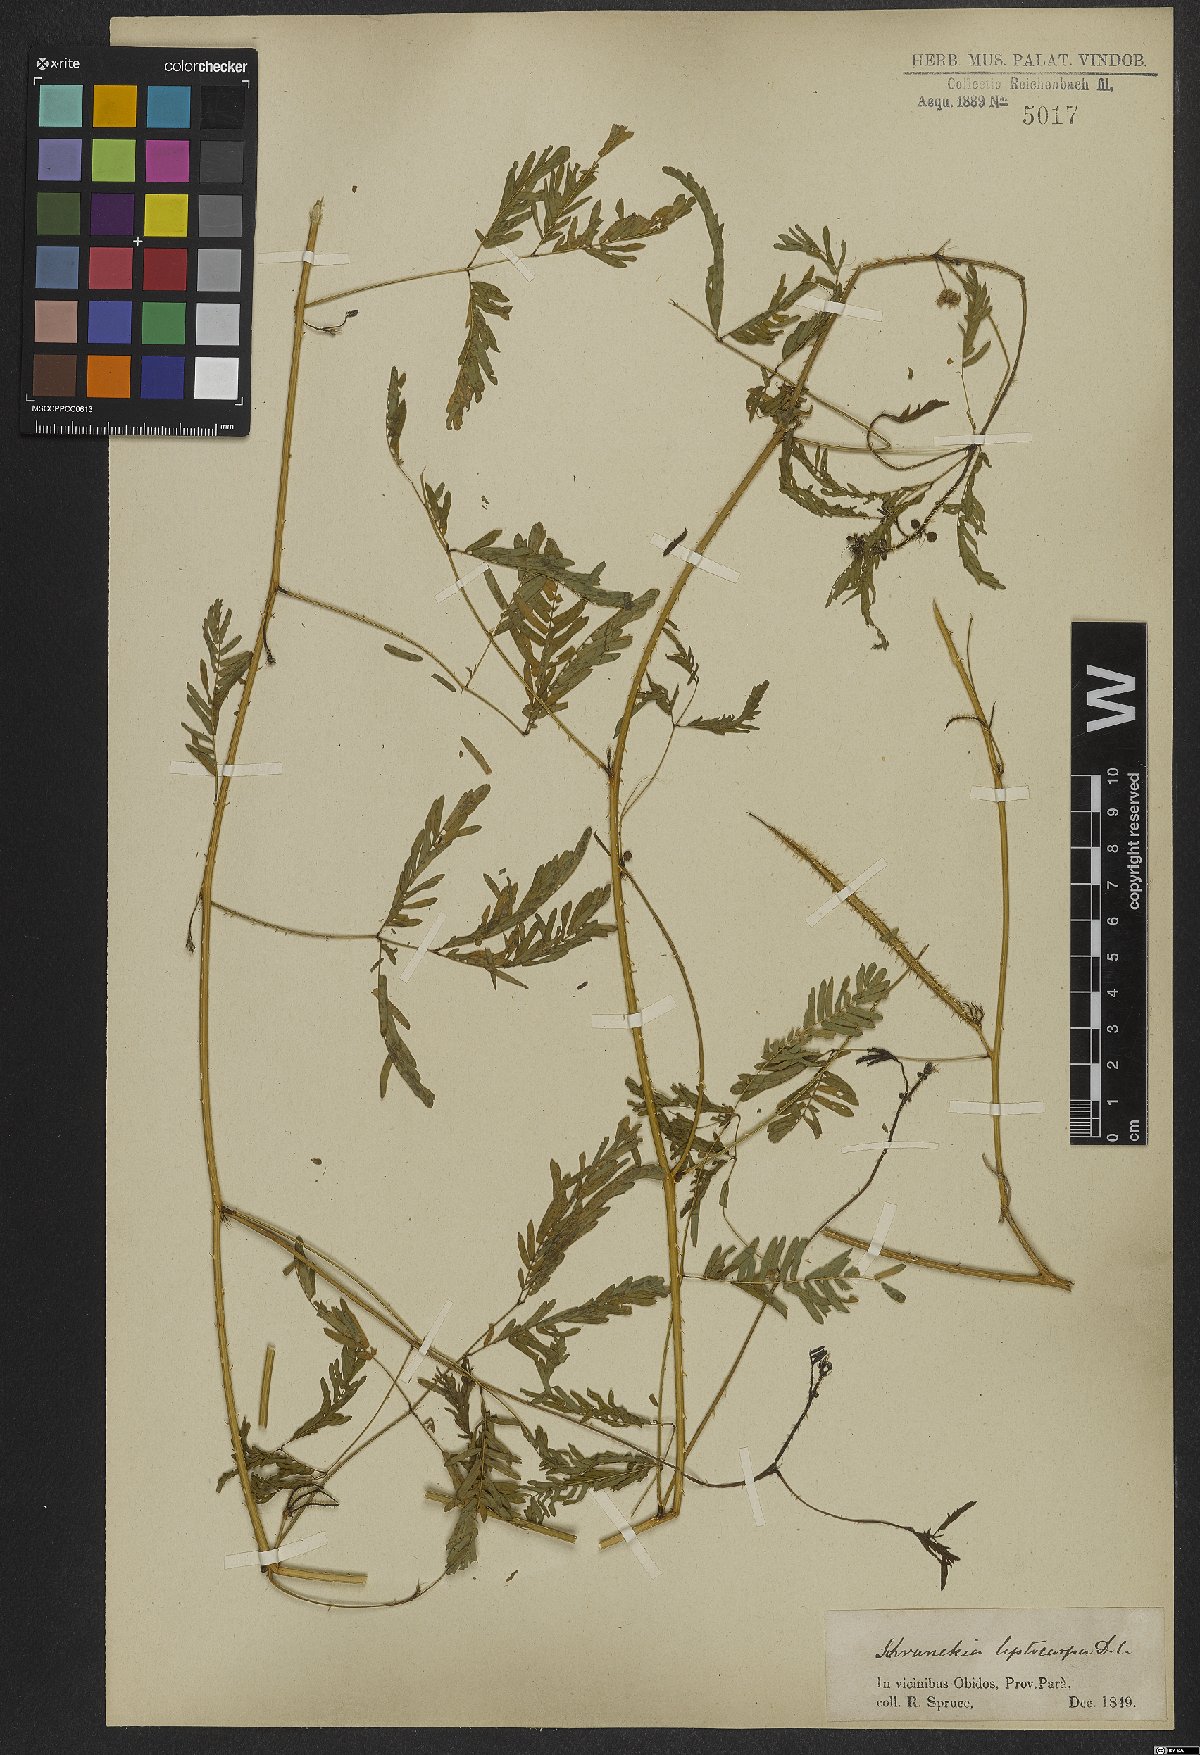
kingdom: Plantae
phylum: Tracheophyta
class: Magnoliopsida
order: Fabales
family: Fabaceae
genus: Mimosa
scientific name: Mimosa candollei
